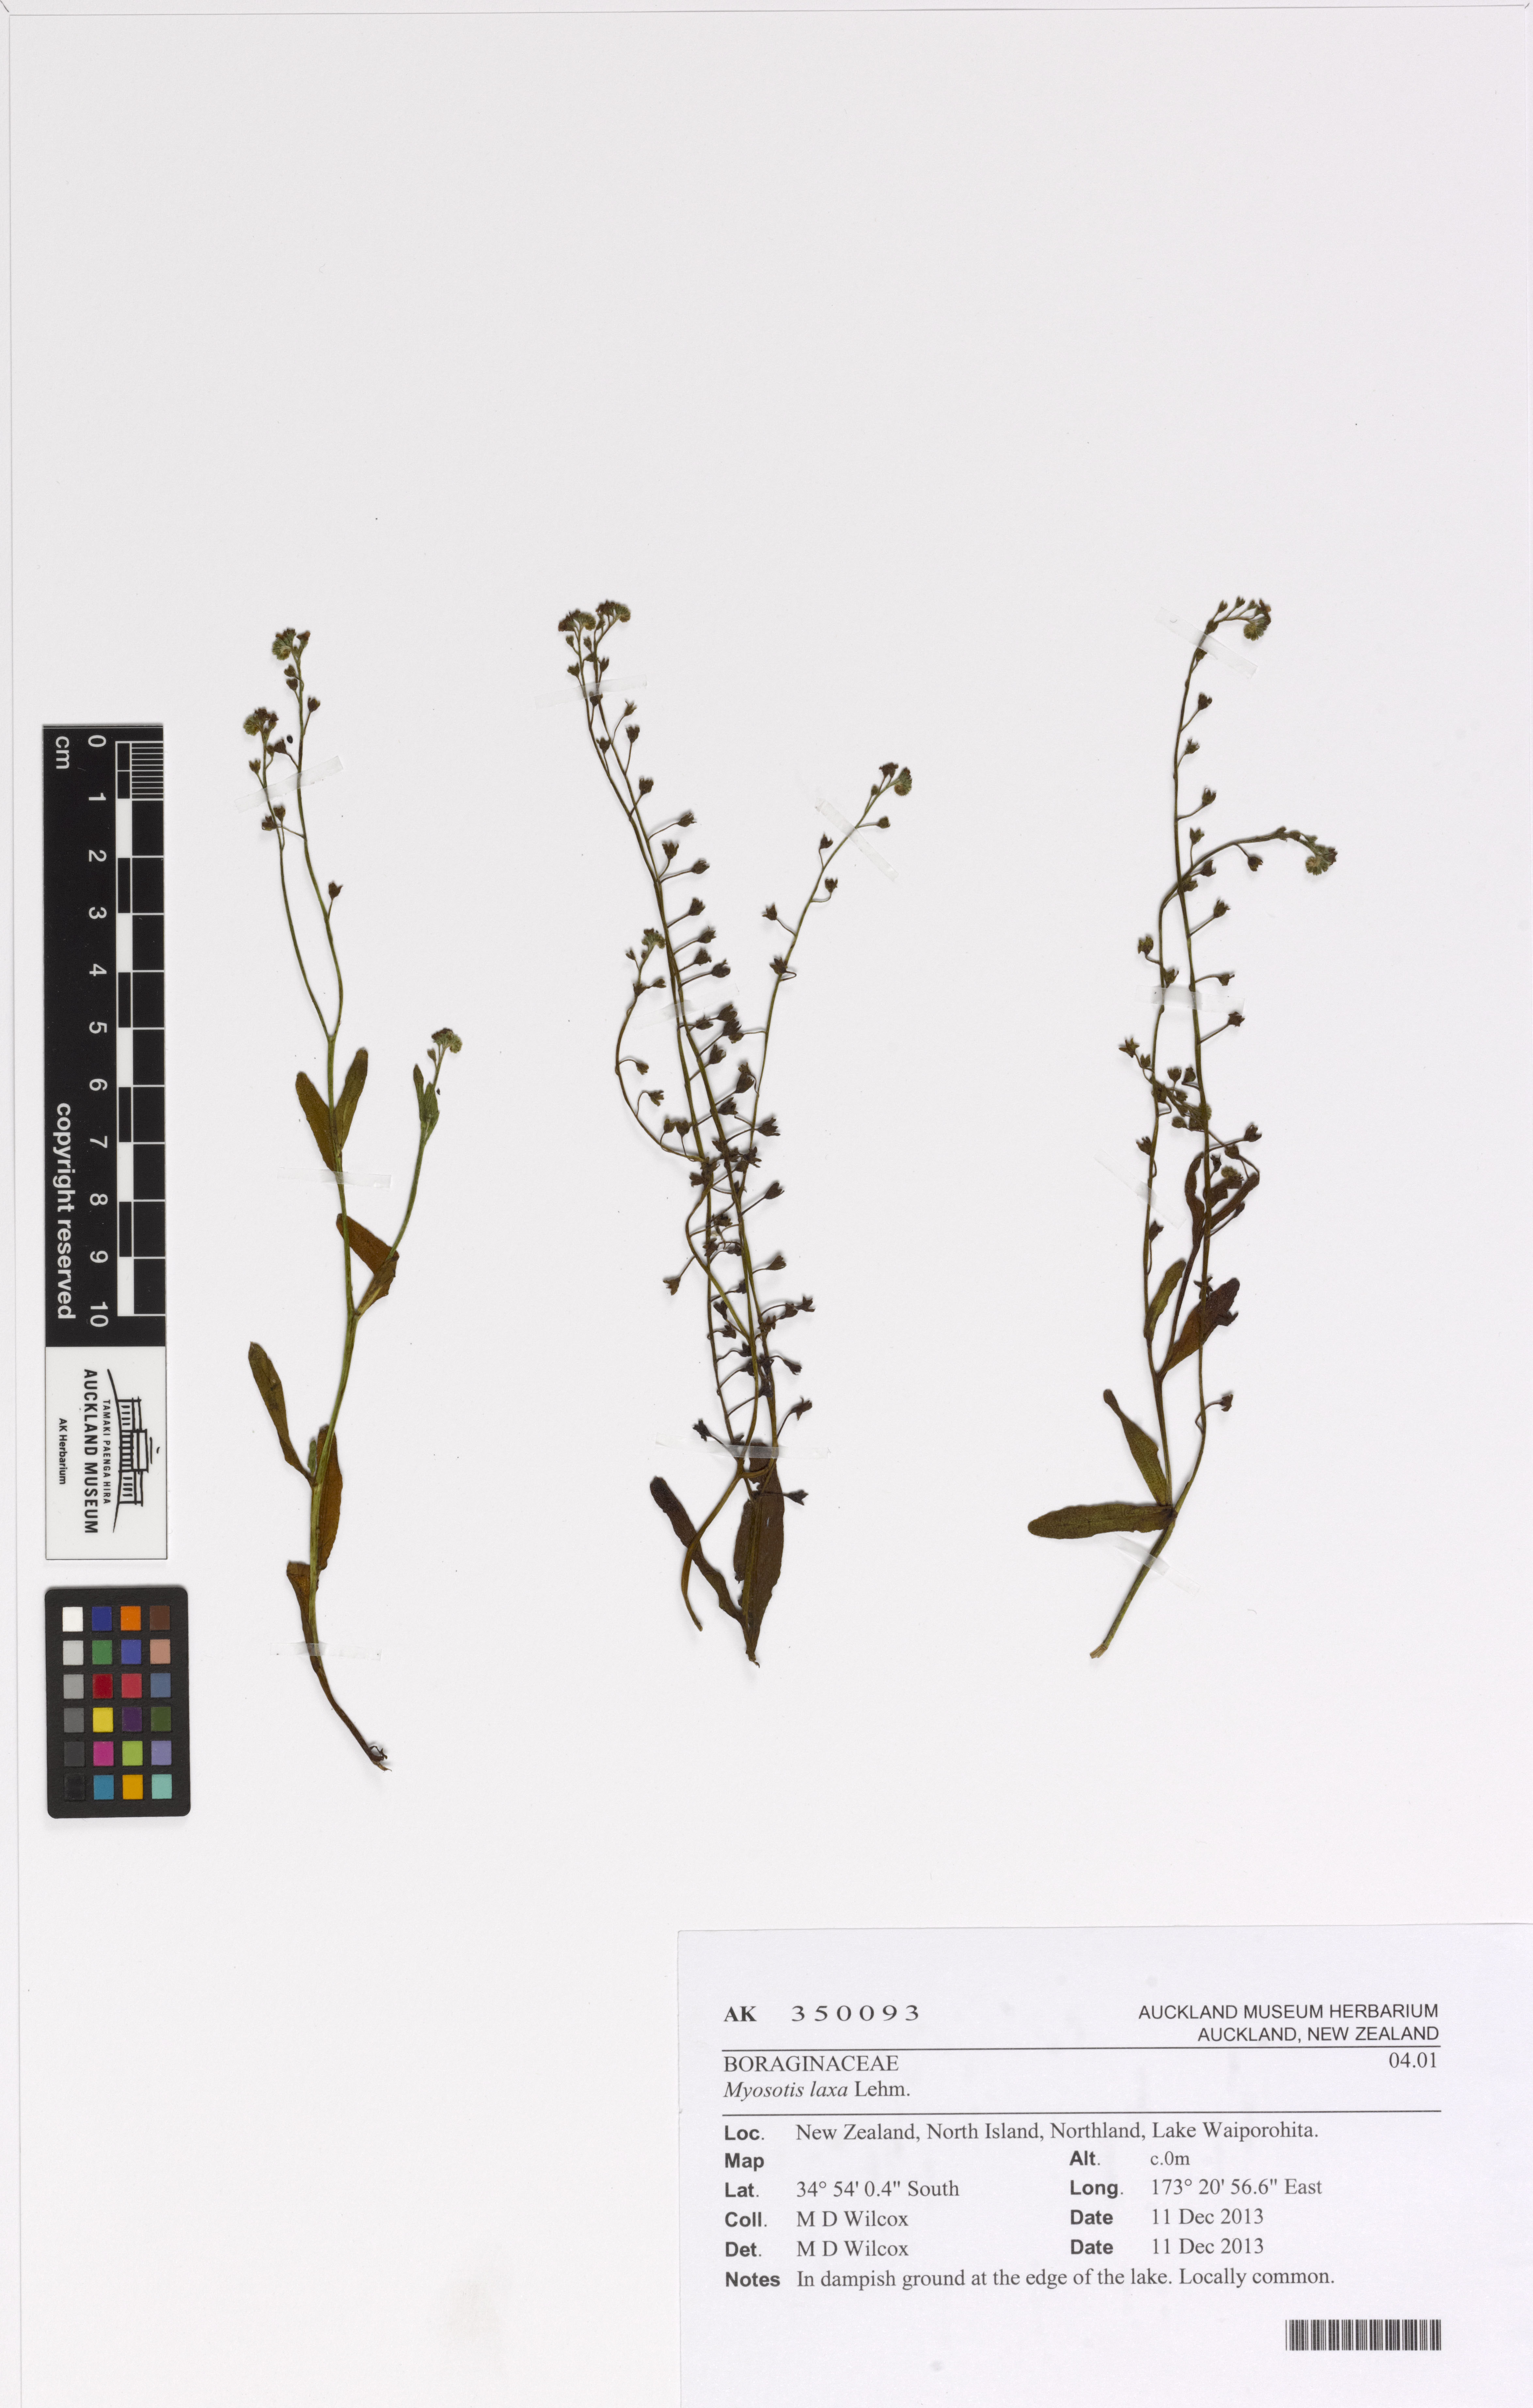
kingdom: Plantae
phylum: Tracheophyta
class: Magnoliopsida
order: Boraginales
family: Boraginaceae
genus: Myosotis
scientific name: Myosotis laxa
